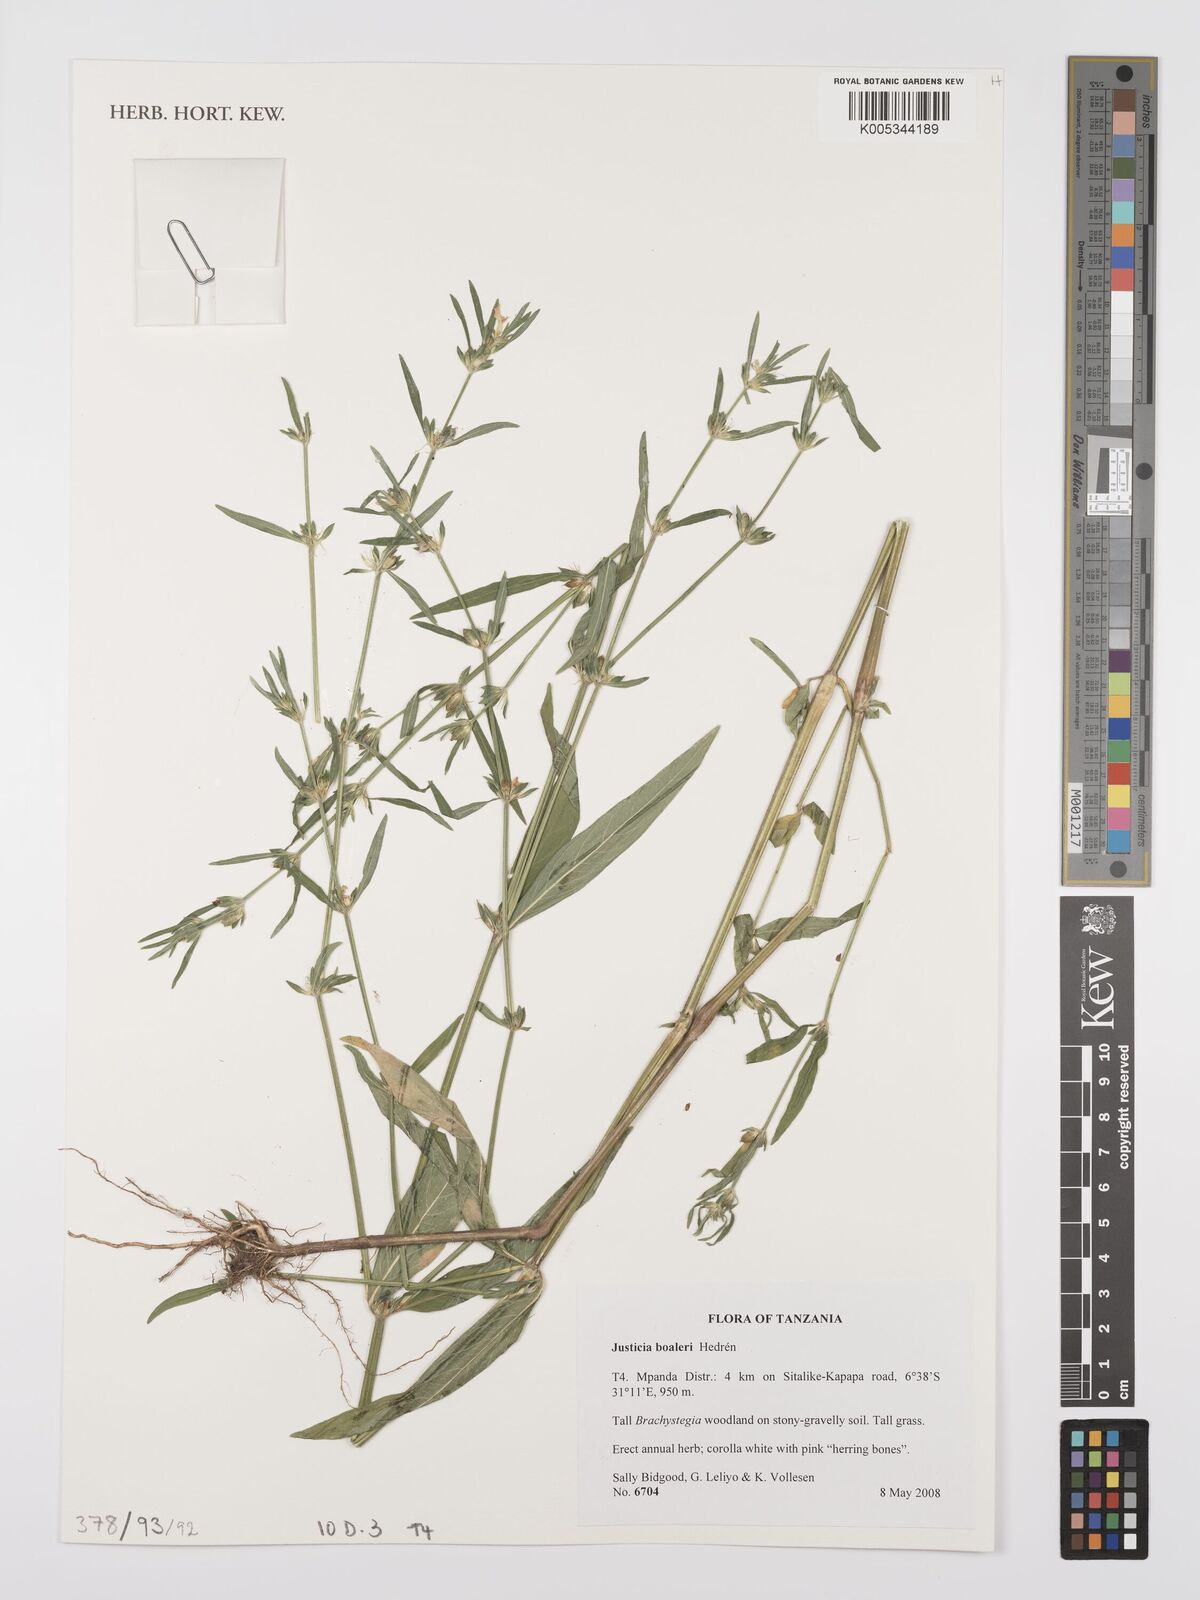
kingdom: Plantae
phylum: Tracheophyta
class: Magnoliopsida
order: Lamiales
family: Acanthaceae
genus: Justicia
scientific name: Justicia boaleri
